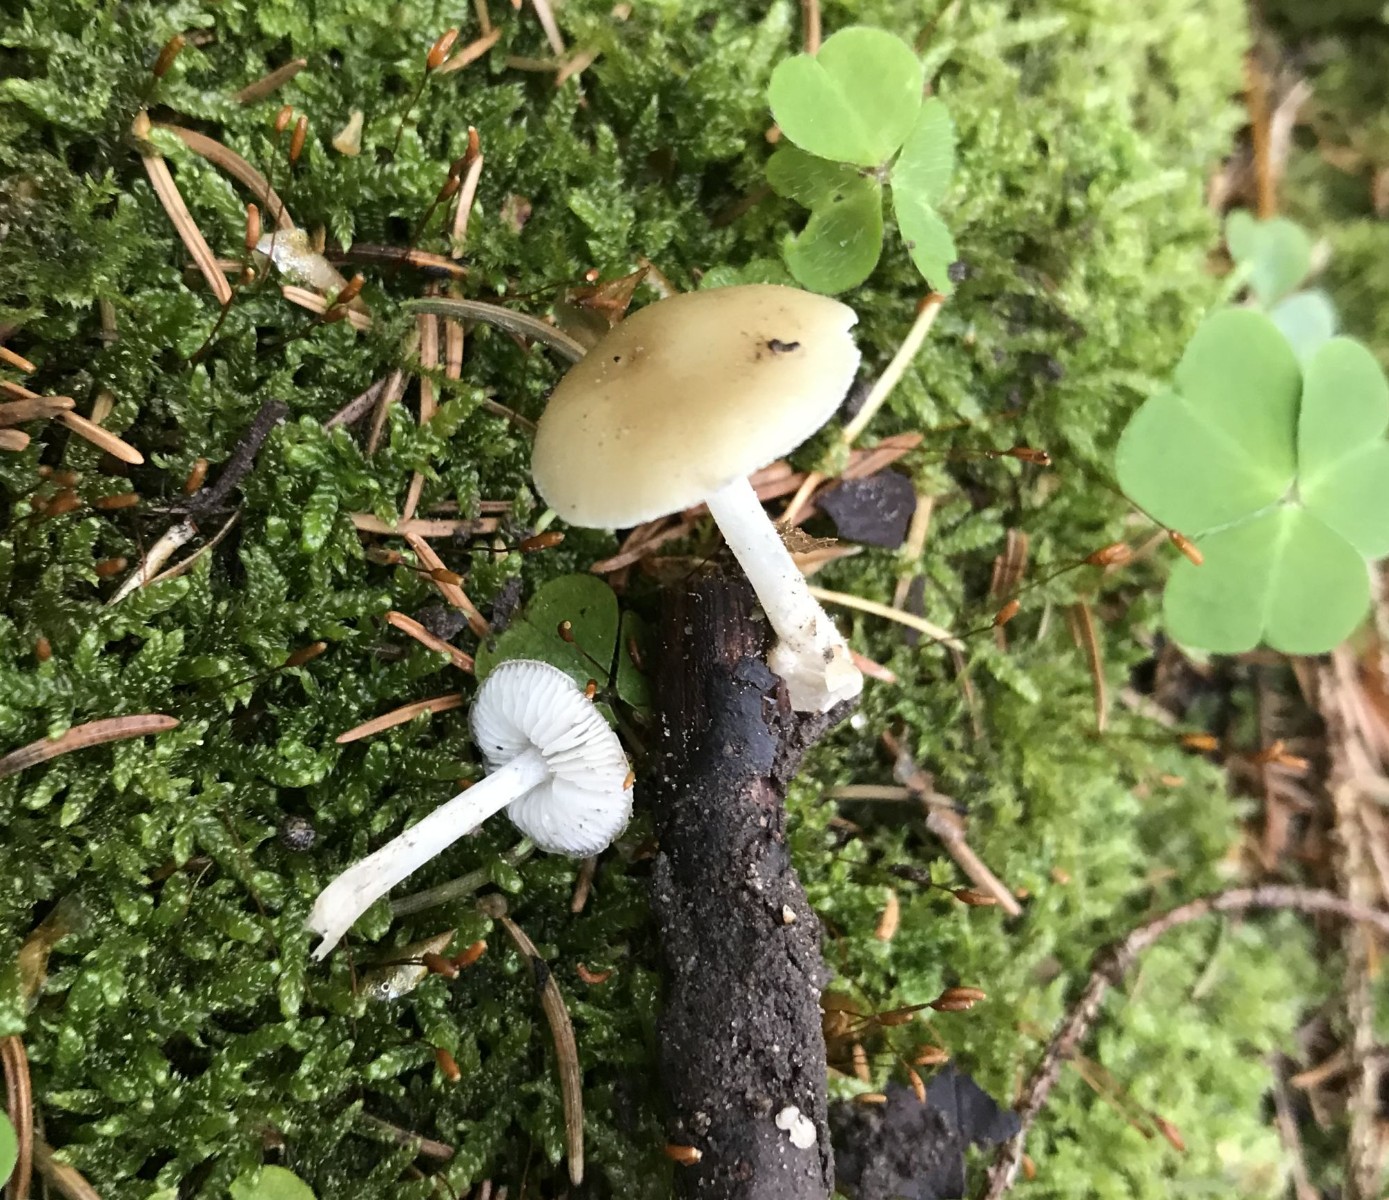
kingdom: Fungi
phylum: Basidiomycota
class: Agaricomycetes
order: Agaricales
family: Porotheleaceae
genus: Hydropodia
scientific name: Hydropodia subalpina
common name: vår-fnugfod
